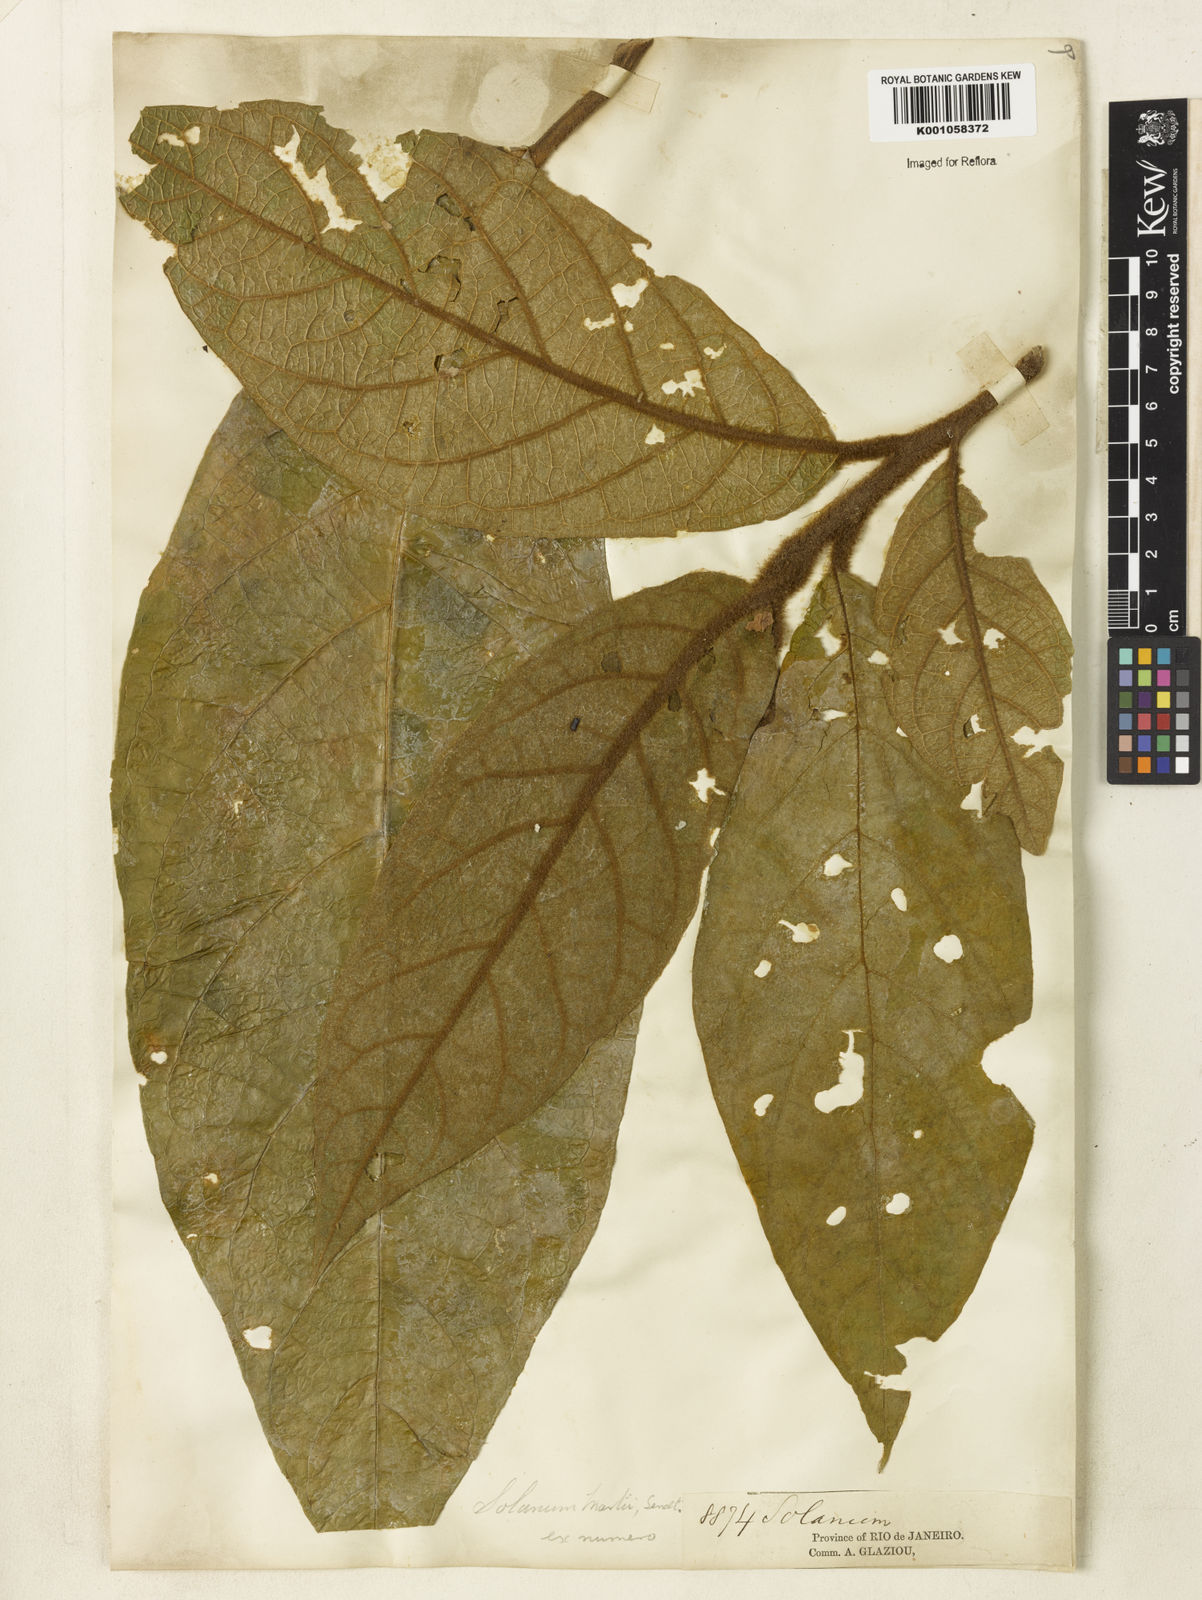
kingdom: Plantae
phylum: Tracheophyta
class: Magnoliopsida
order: Solanales
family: Solanaceae
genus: Solanum
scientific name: Solanum martii
